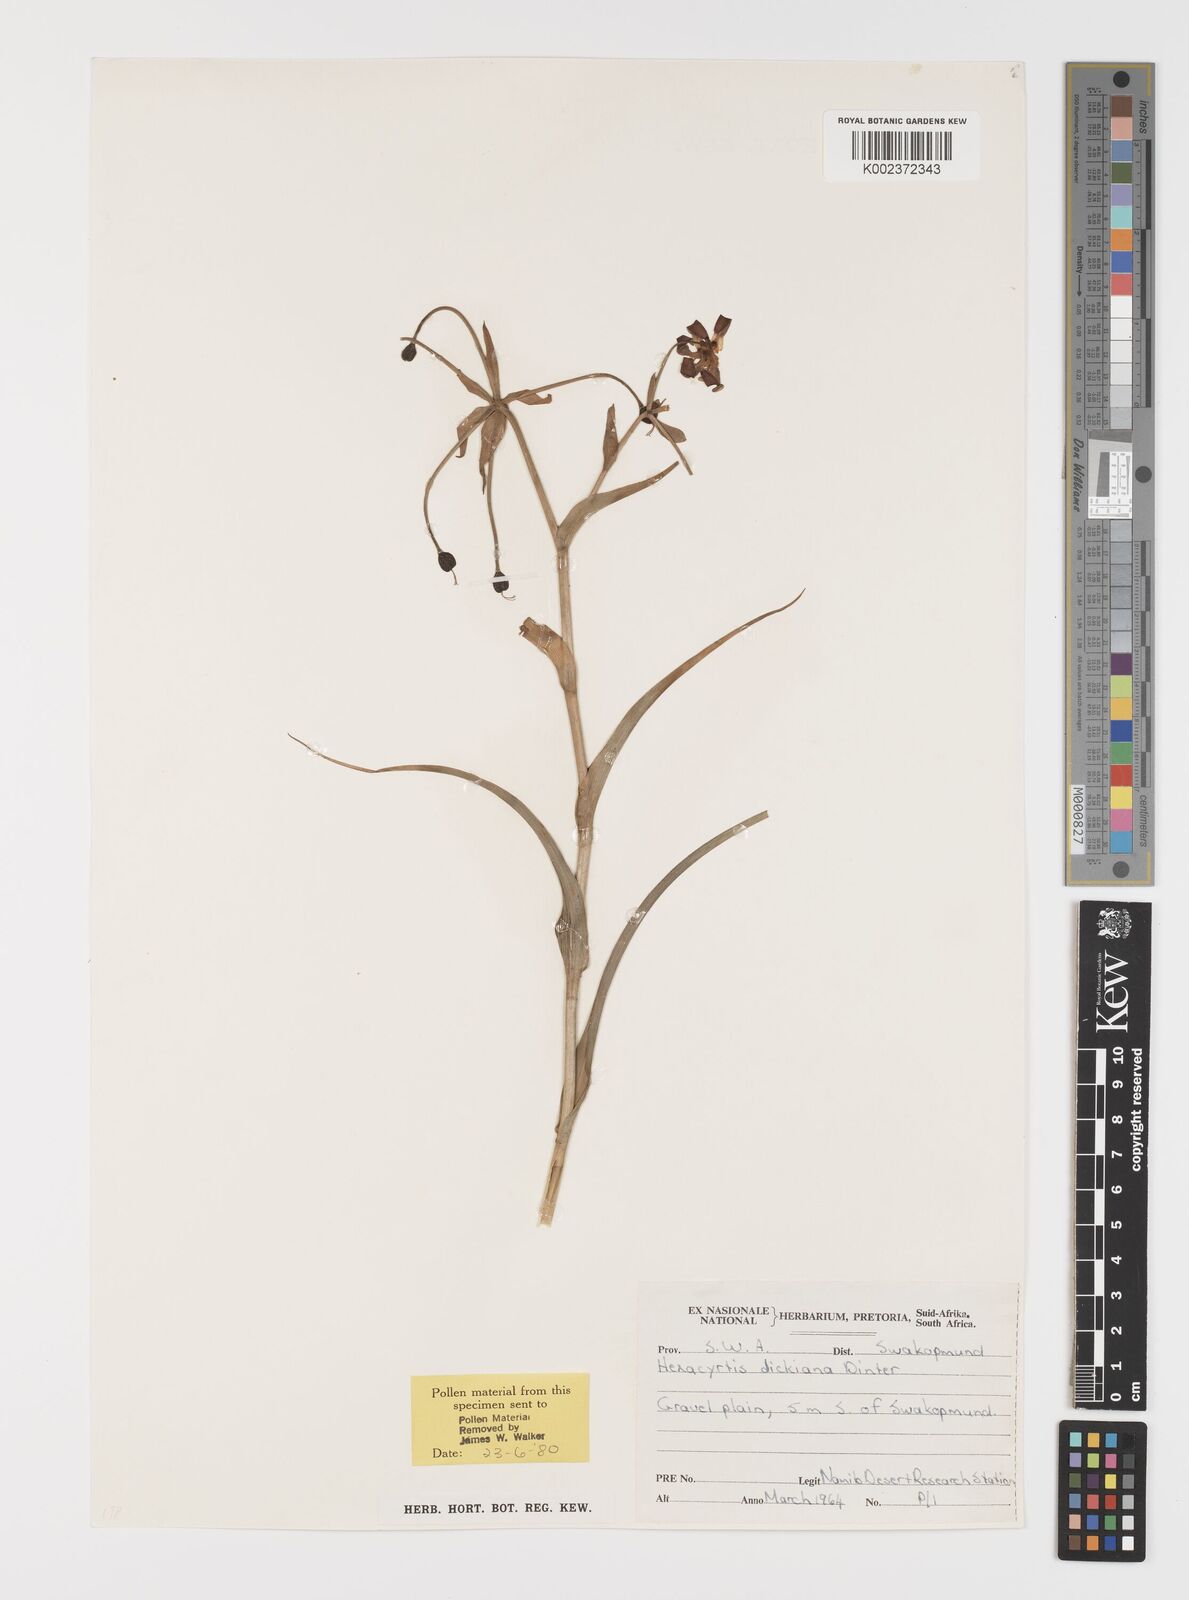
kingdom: Plantae
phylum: Tracheophyta
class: Liliopsida
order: Liliales
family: Colchicaceae
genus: Hexacyrtis
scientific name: Hexacyrtis dickiana
